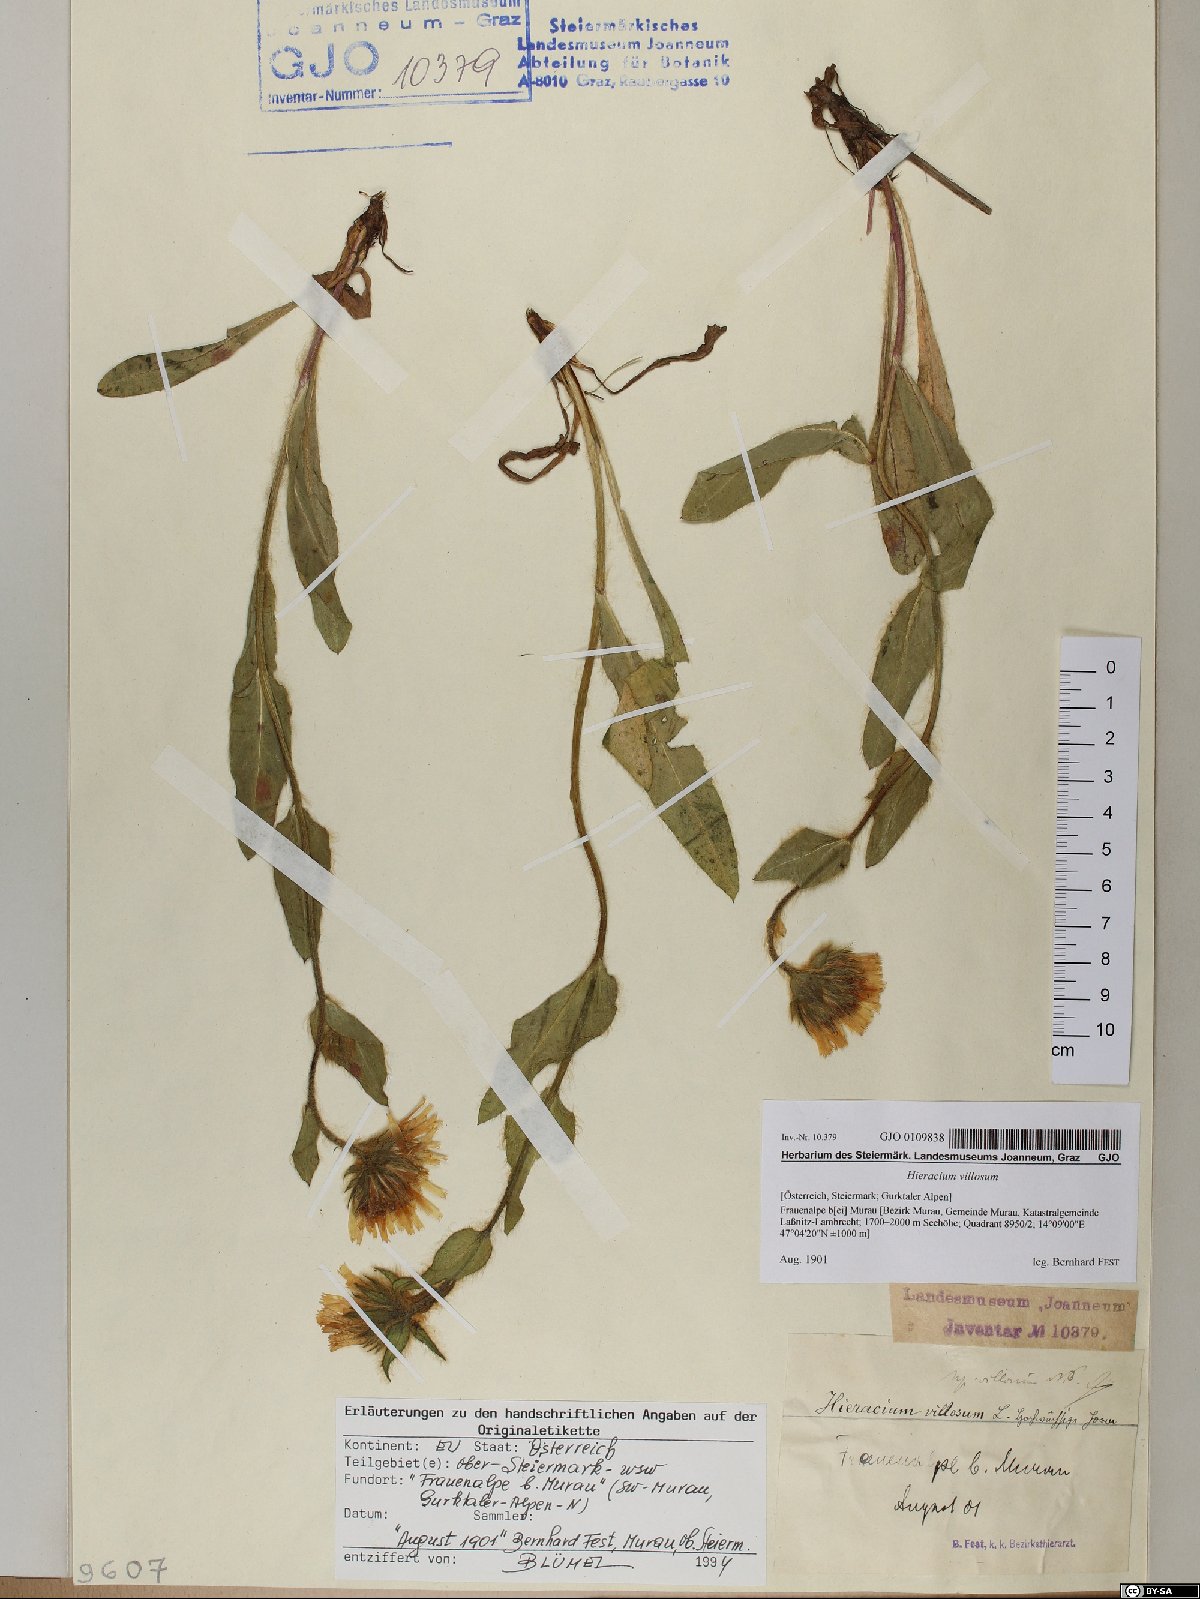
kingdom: Plantae
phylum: Tracheophyta
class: Magnoliopsida
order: Asterales
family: Asteraceae
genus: Hieracium
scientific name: Hieracium villosum
